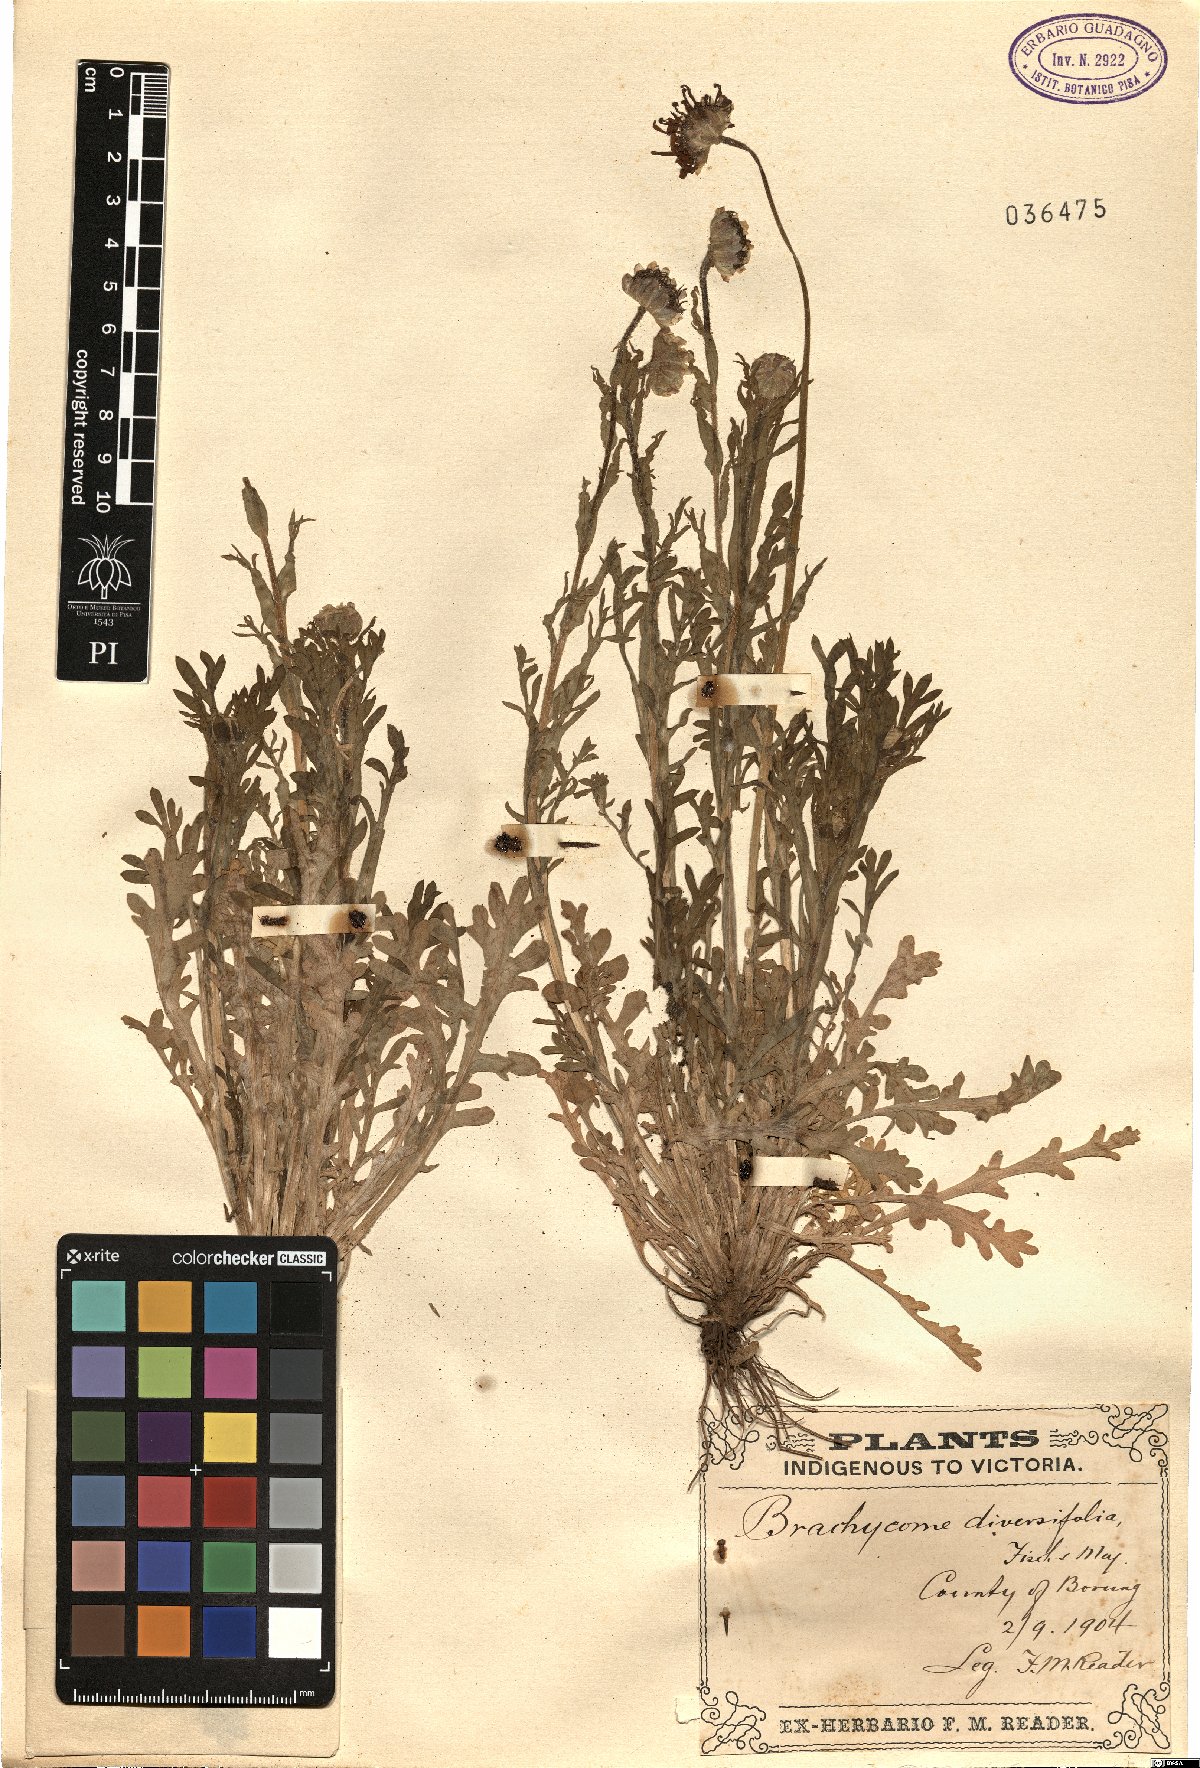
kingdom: Plantae
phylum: Tracheophyta
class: Magnoliopsida
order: Asterales
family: Asteraceae
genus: Brachyscome
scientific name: Brachyscome diversifolia
